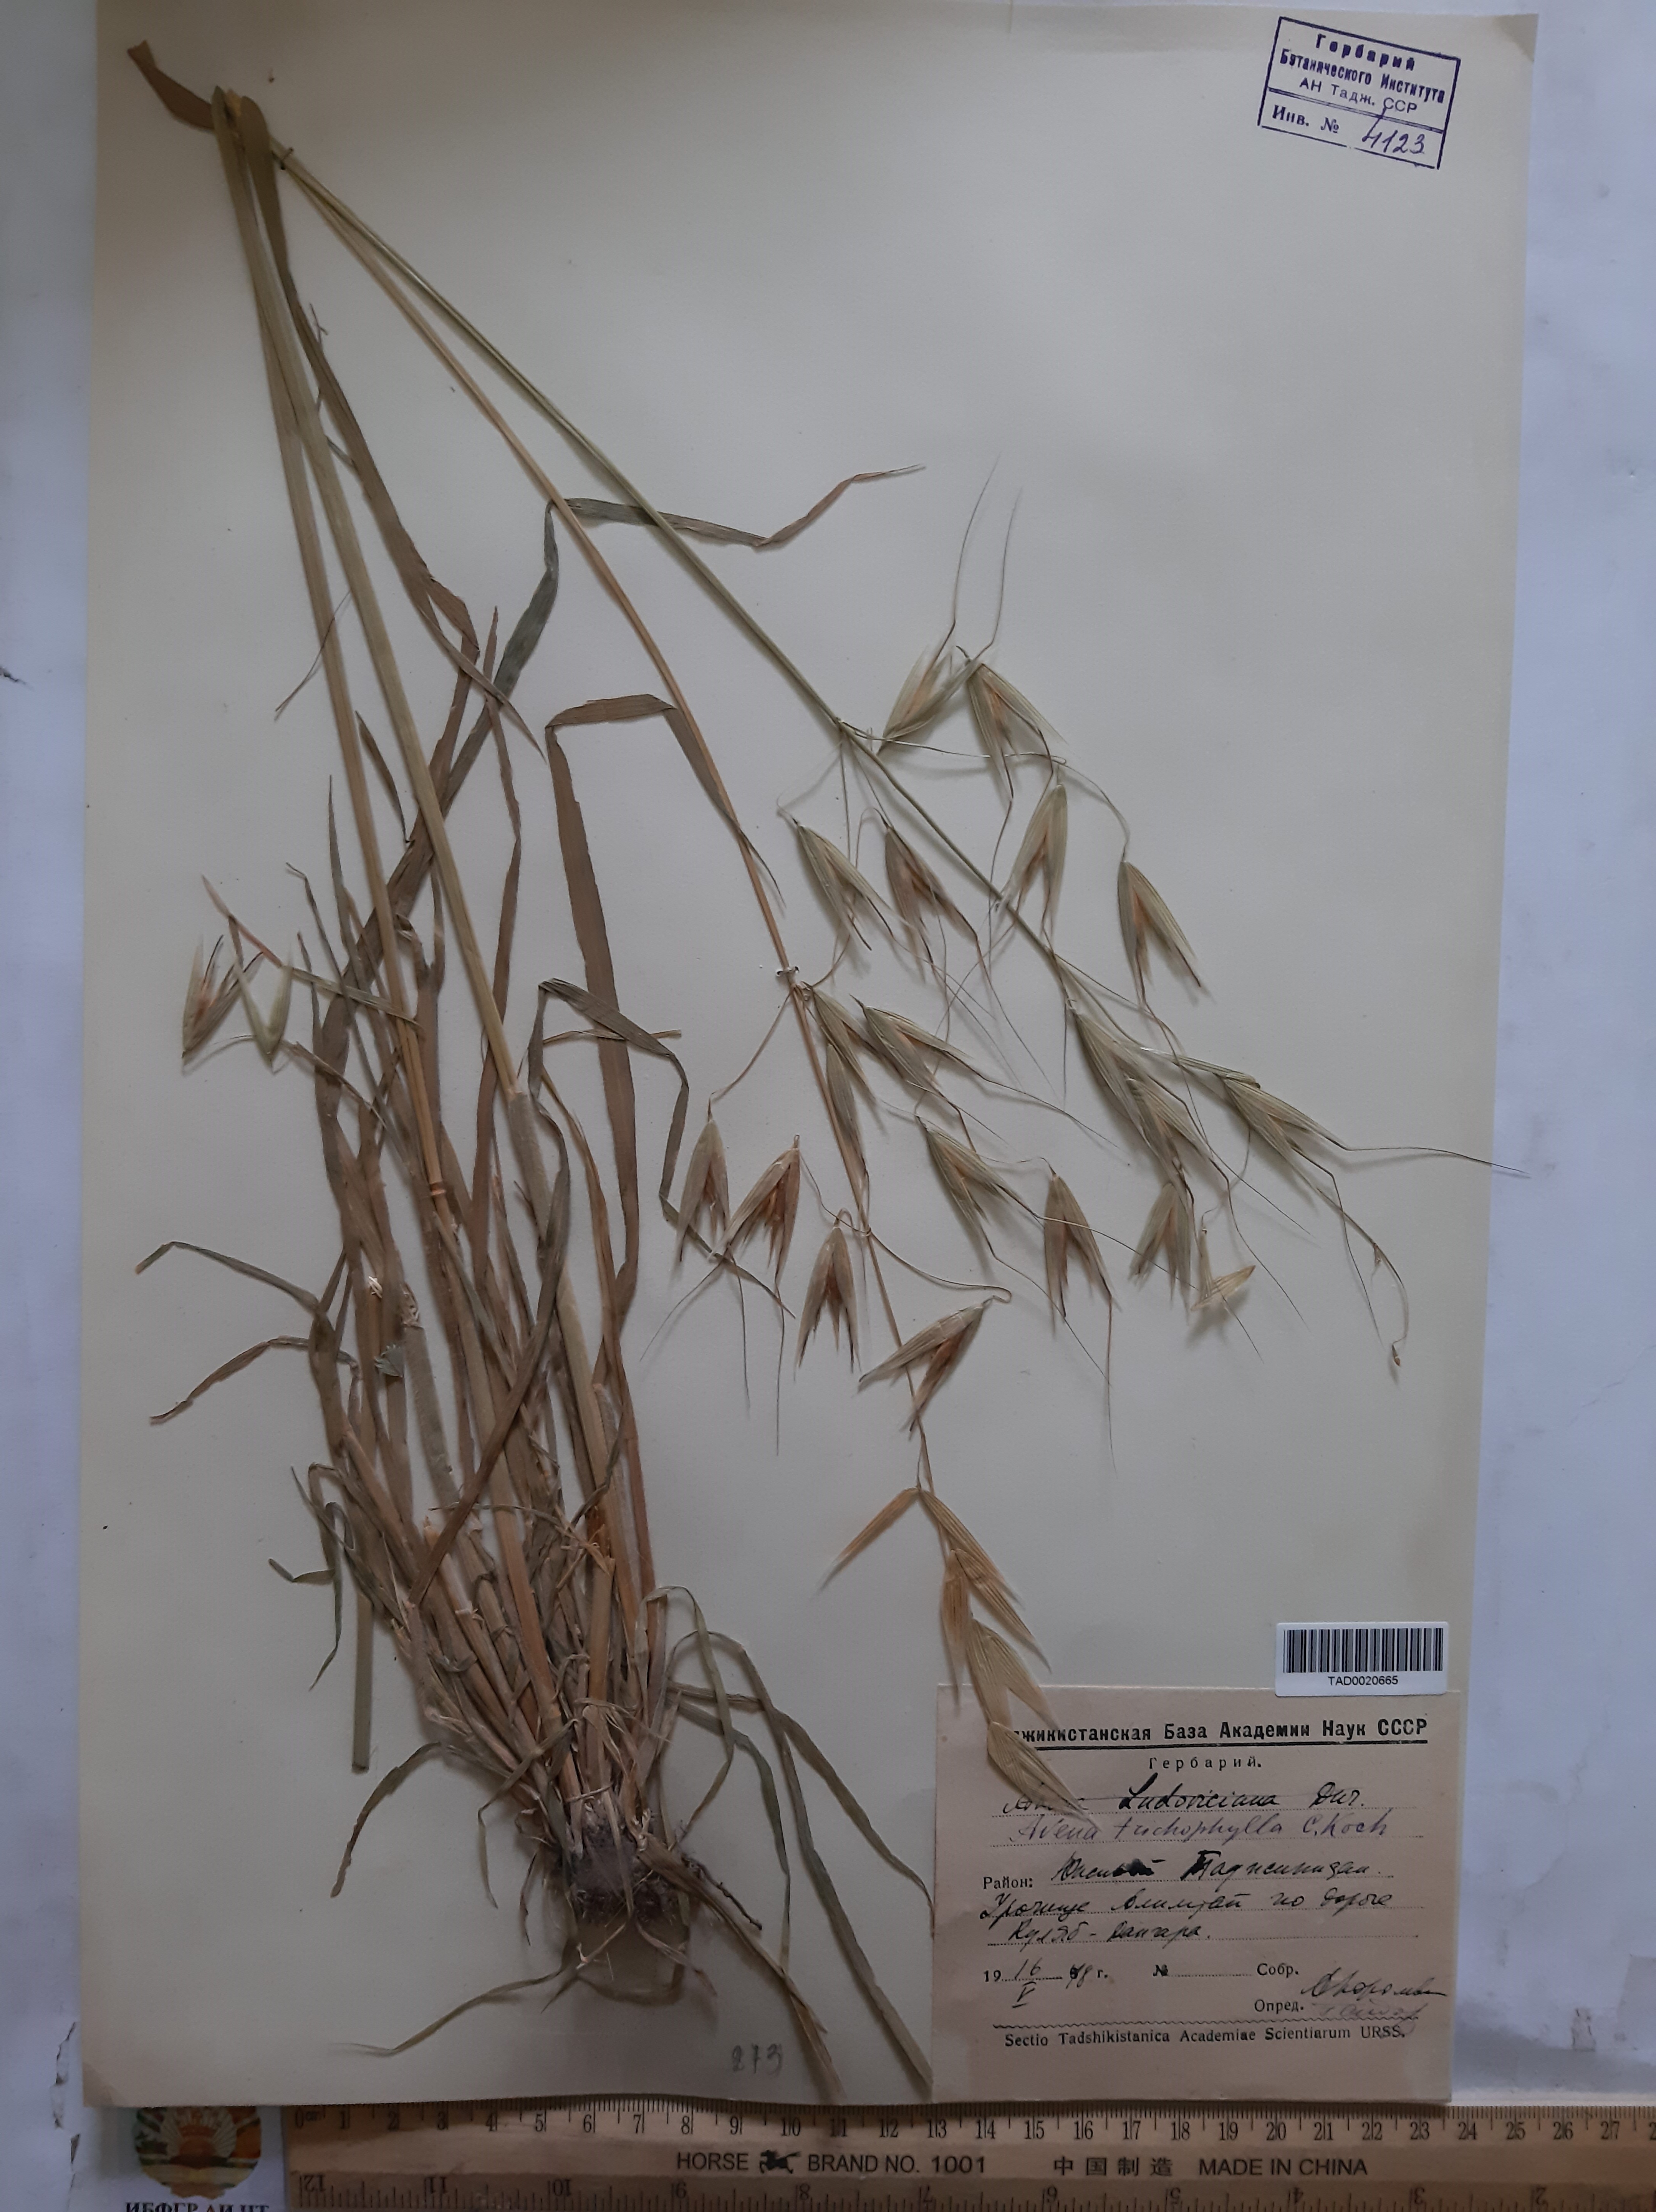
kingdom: Plantae
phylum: Tracheophyta
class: Liliopsida
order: Poales
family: Poaceae
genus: Avena
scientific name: Avena sterilis
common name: Animated oat
